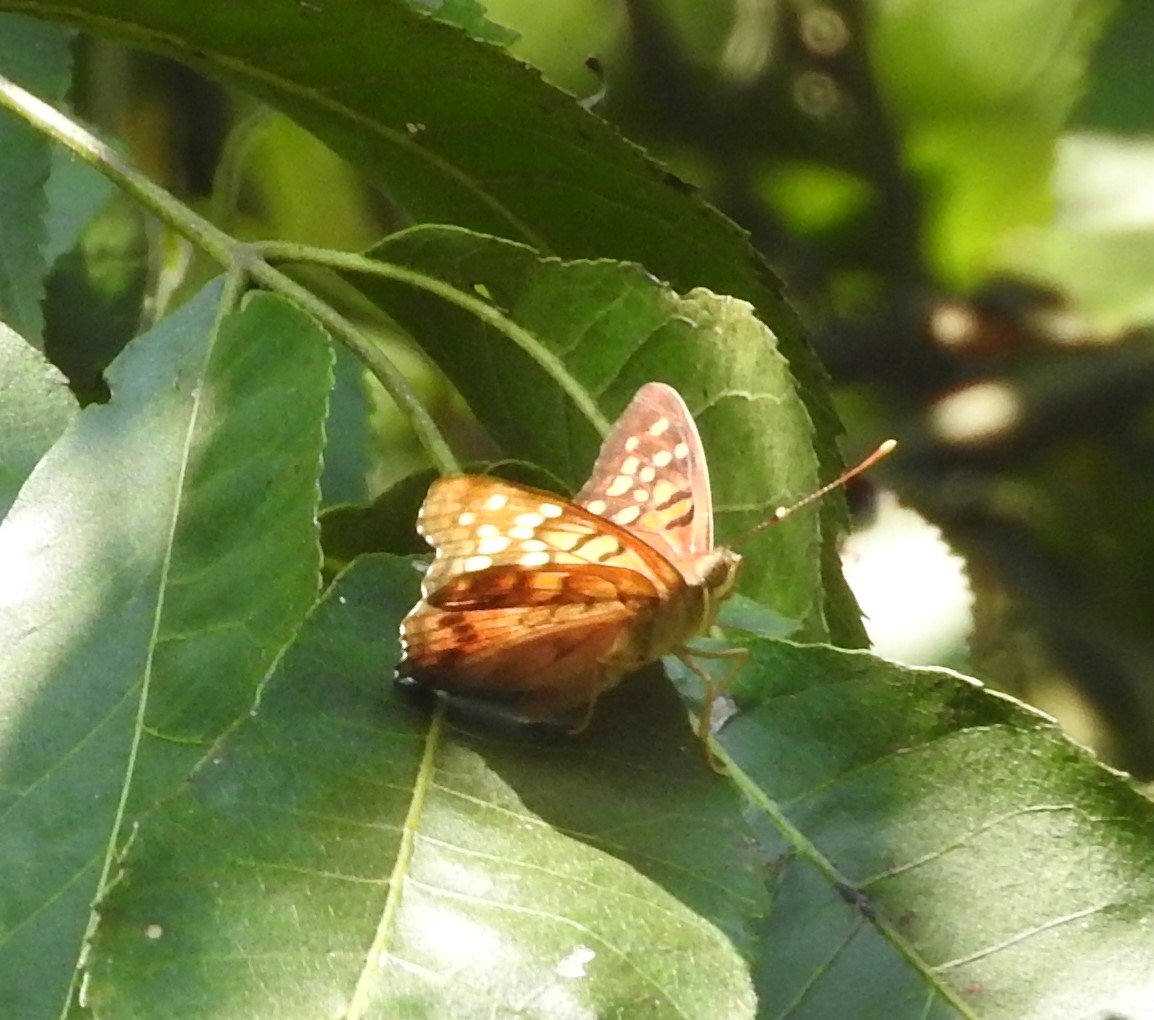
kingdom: Animalia
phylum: Arthropoda
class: Insecta
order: Lepidoptera
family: Nymphalidae
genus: Asterocampa
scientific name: Asterocampa clyton
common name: Tawny Emperor
